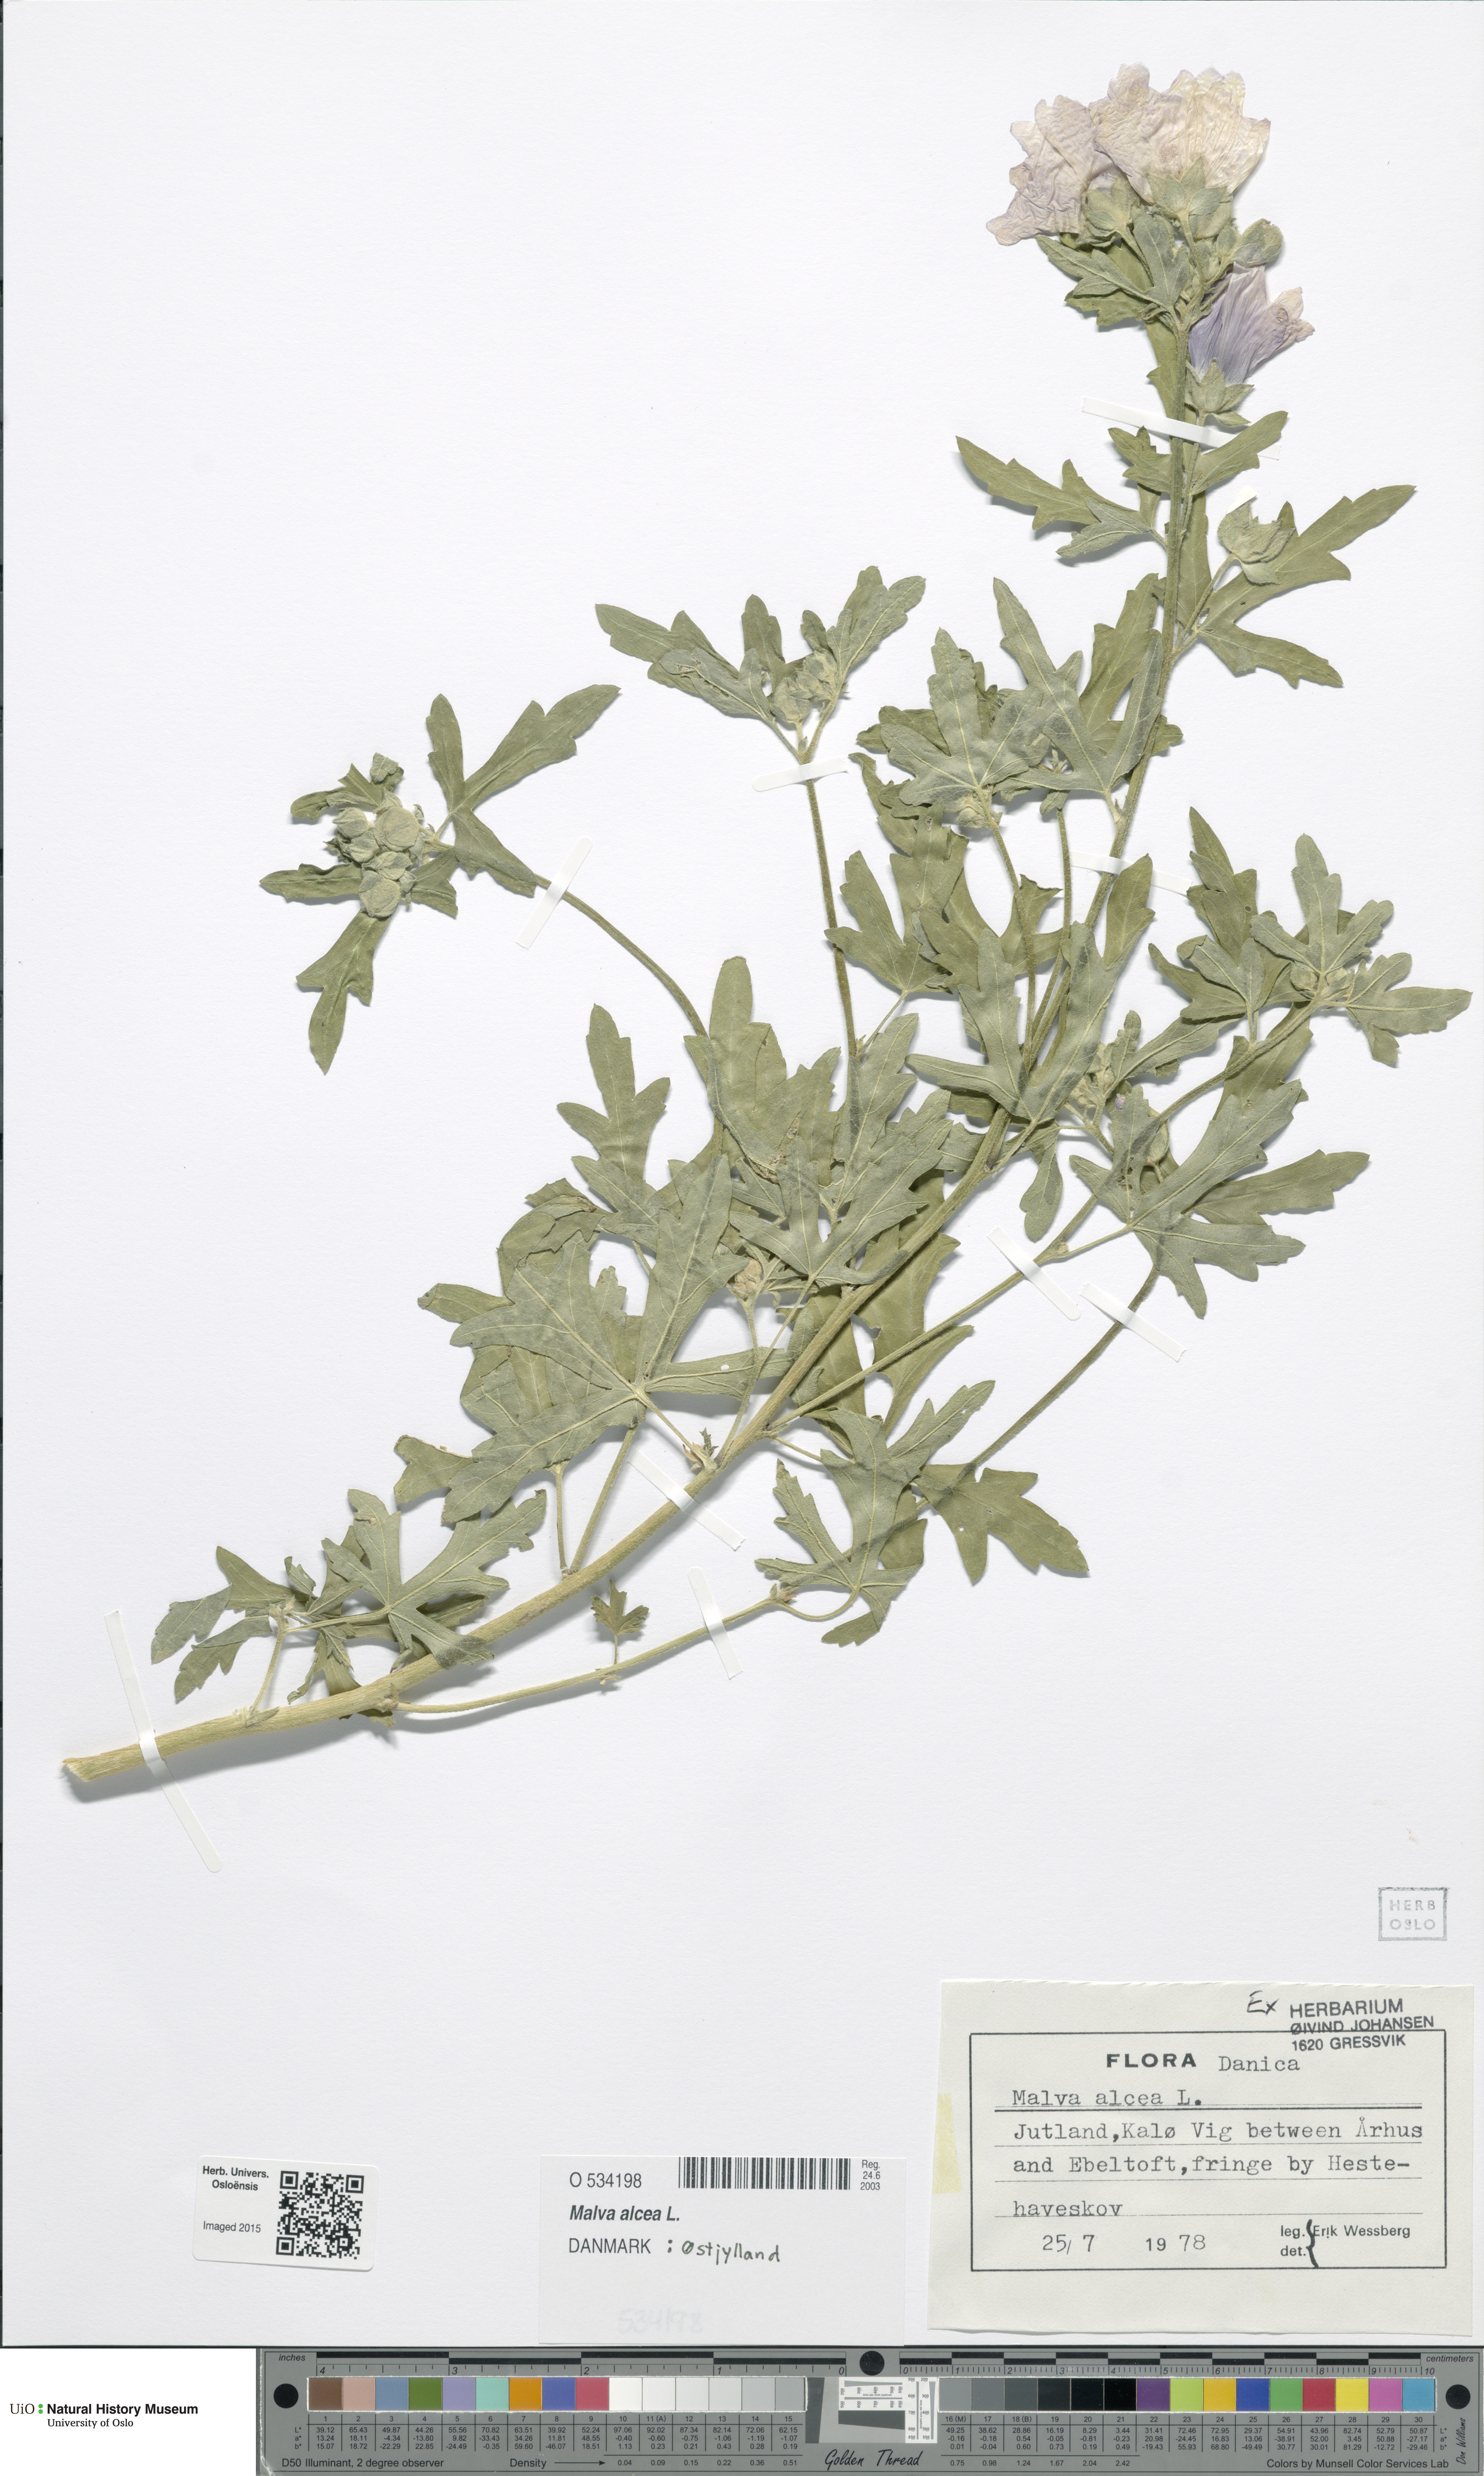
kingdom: Plantae
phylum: Tracheophyta
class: Magnoliopsida
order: Malvales
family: Malvaceae
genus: Malva
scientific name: Malva alcea
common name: Greater musk-mallow
